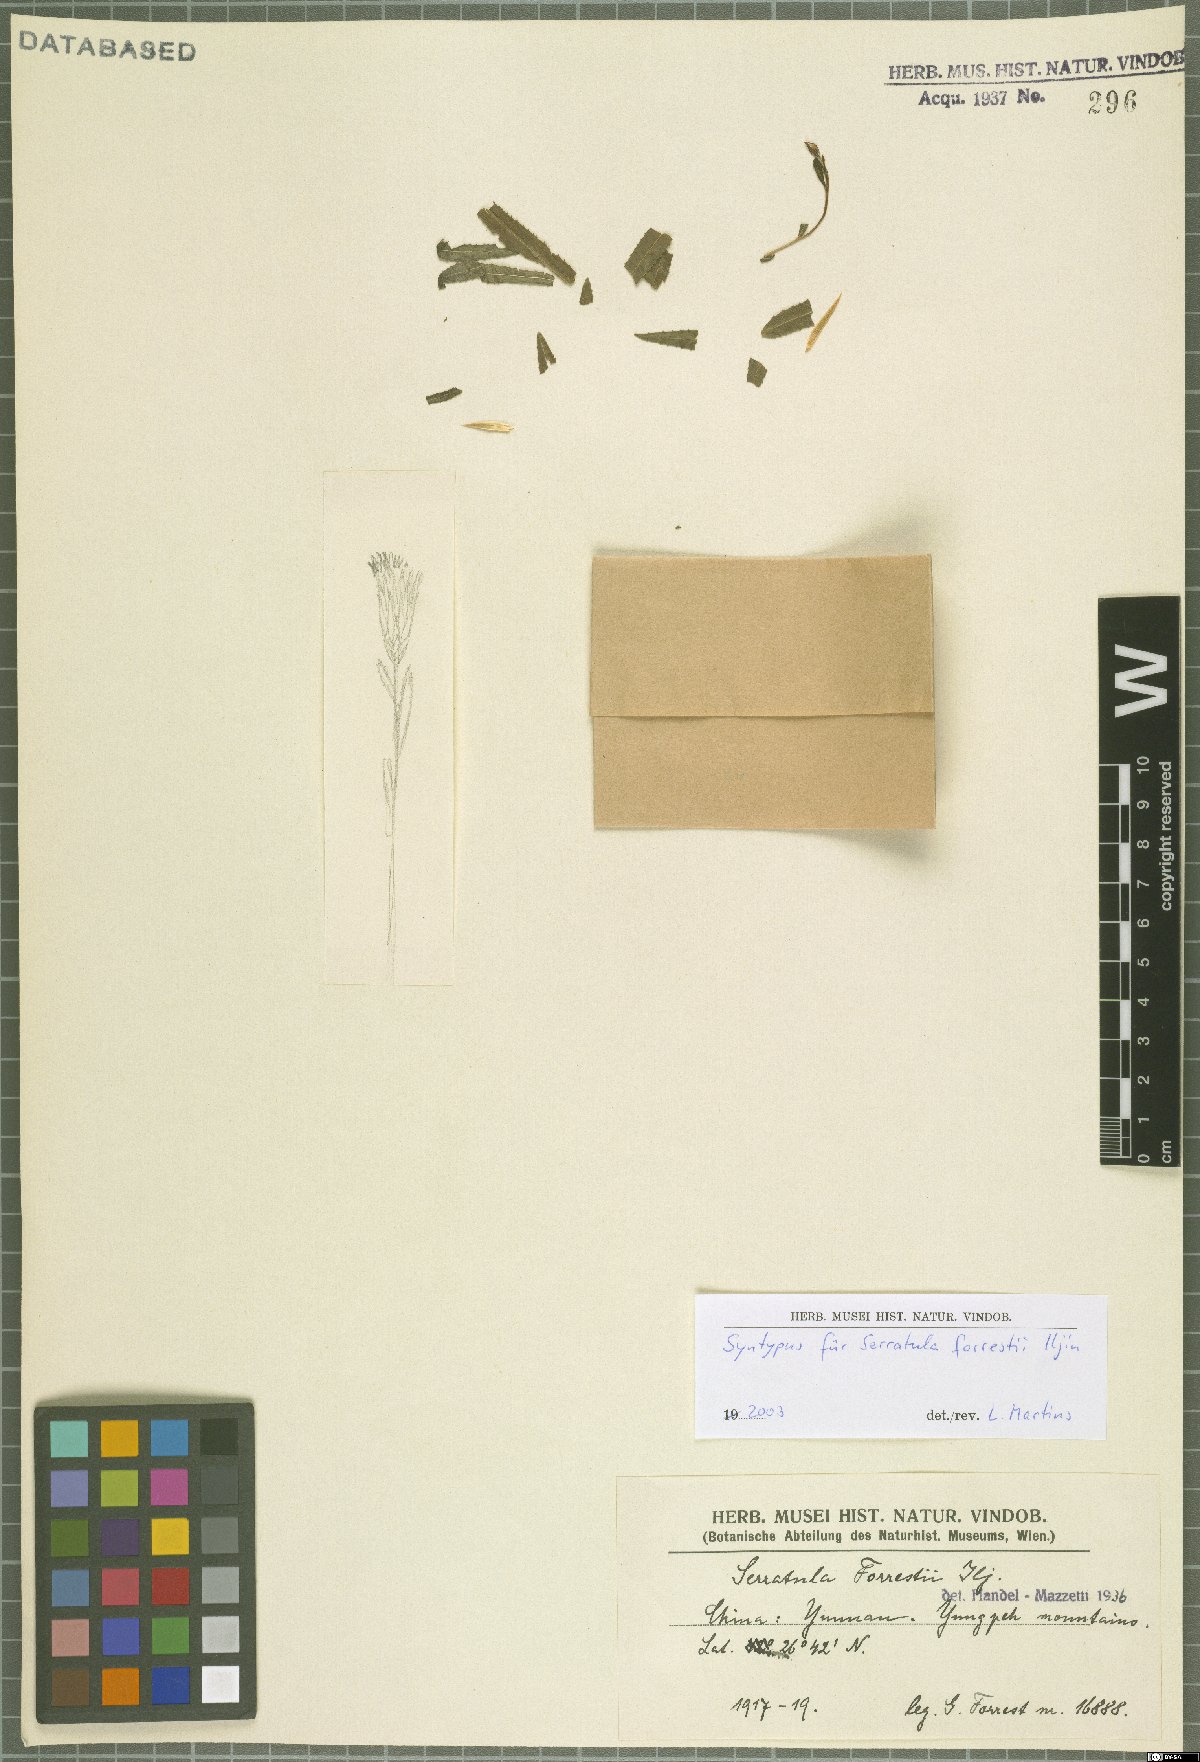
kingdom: Plantae
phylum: Tracheophyta
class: Magnoliopsida
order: Asterales
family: Asteraceae
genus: Archiserratula
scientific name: Archiserratula forrestii
